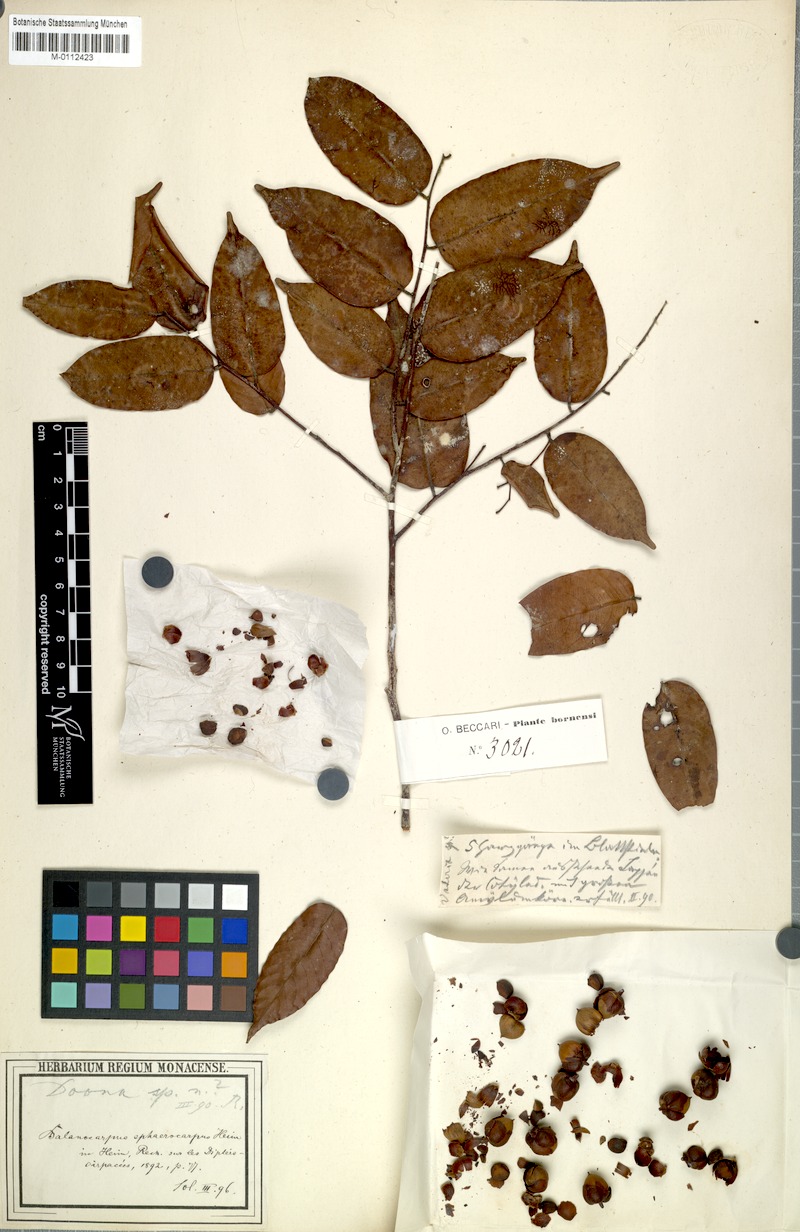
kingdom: Plantae
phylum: Tracheophyta
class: Magnoliopsida
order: Malvales
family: Dipterocarpaceae
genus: Hopea
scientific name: Hopea sphaerocarpa
